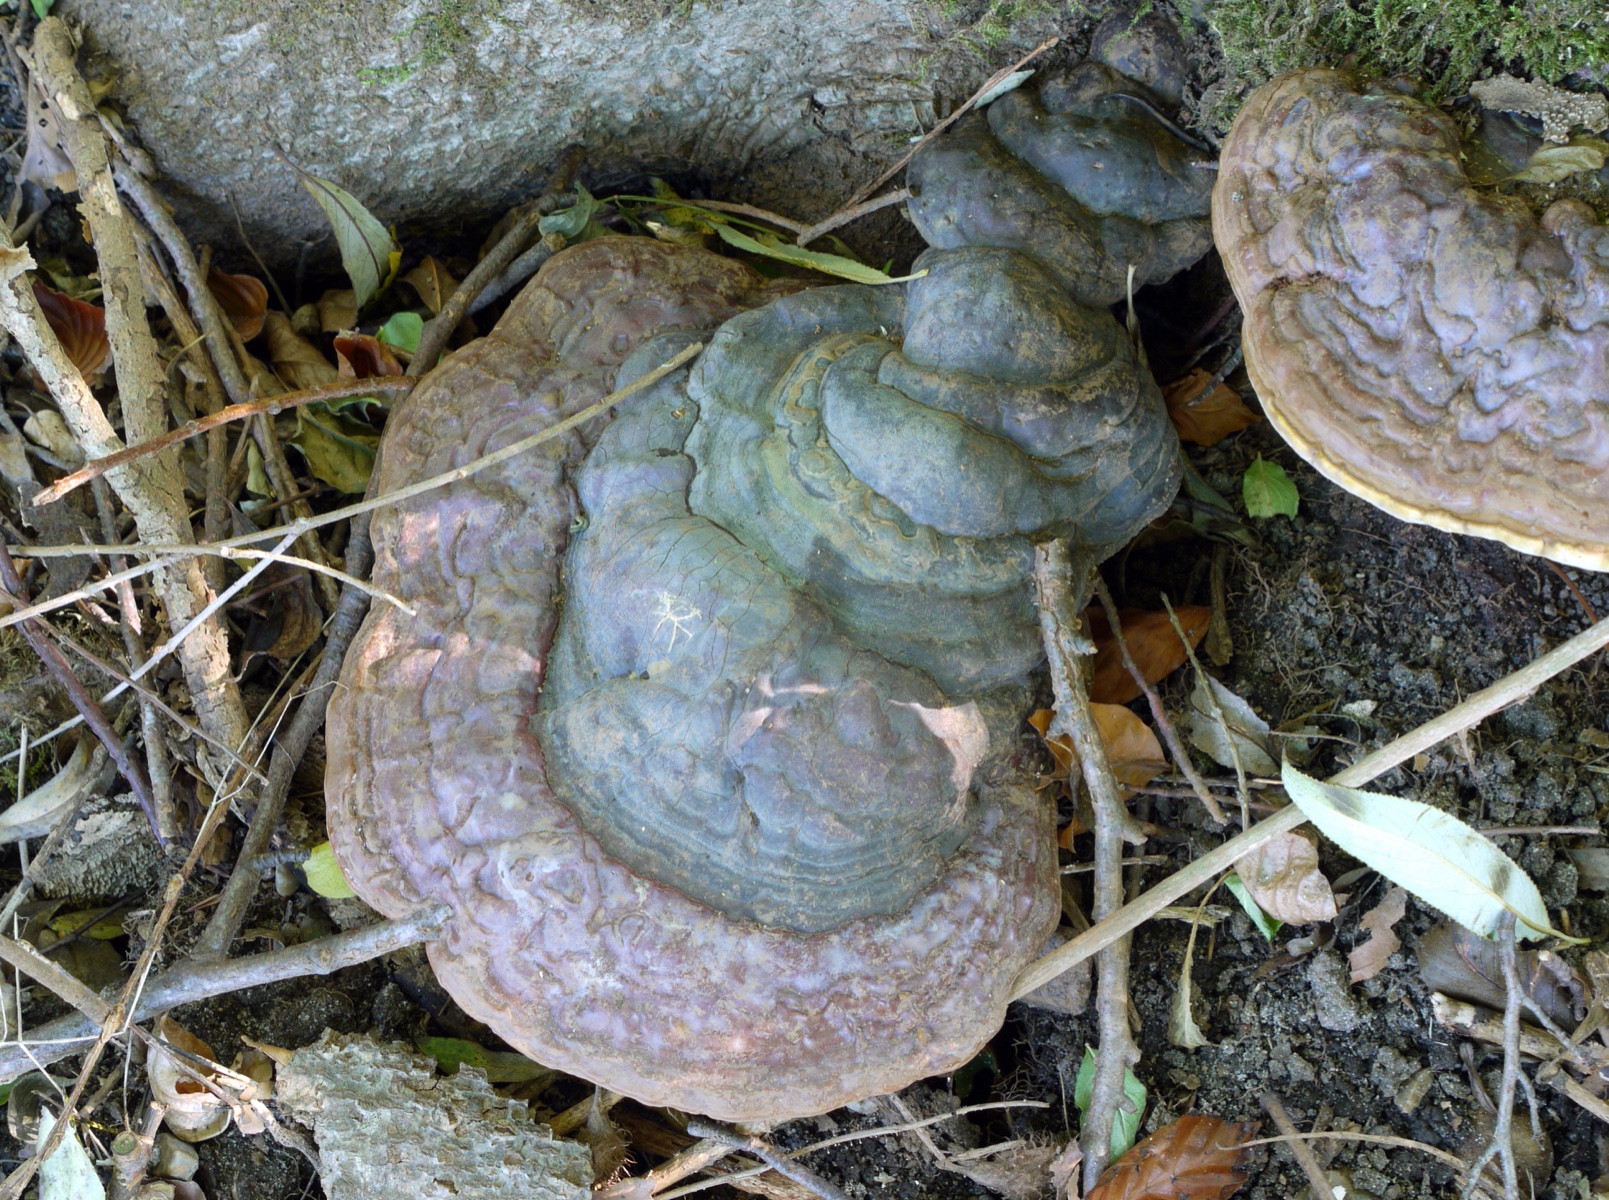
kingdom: Fungi
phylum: Basidiomycota
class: Agaricomycetes
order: Polyporales
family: Polyporaceae
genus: Ganoderma
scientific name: Ganoderma pfeifferi
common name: kobberrød lakporesvamp
